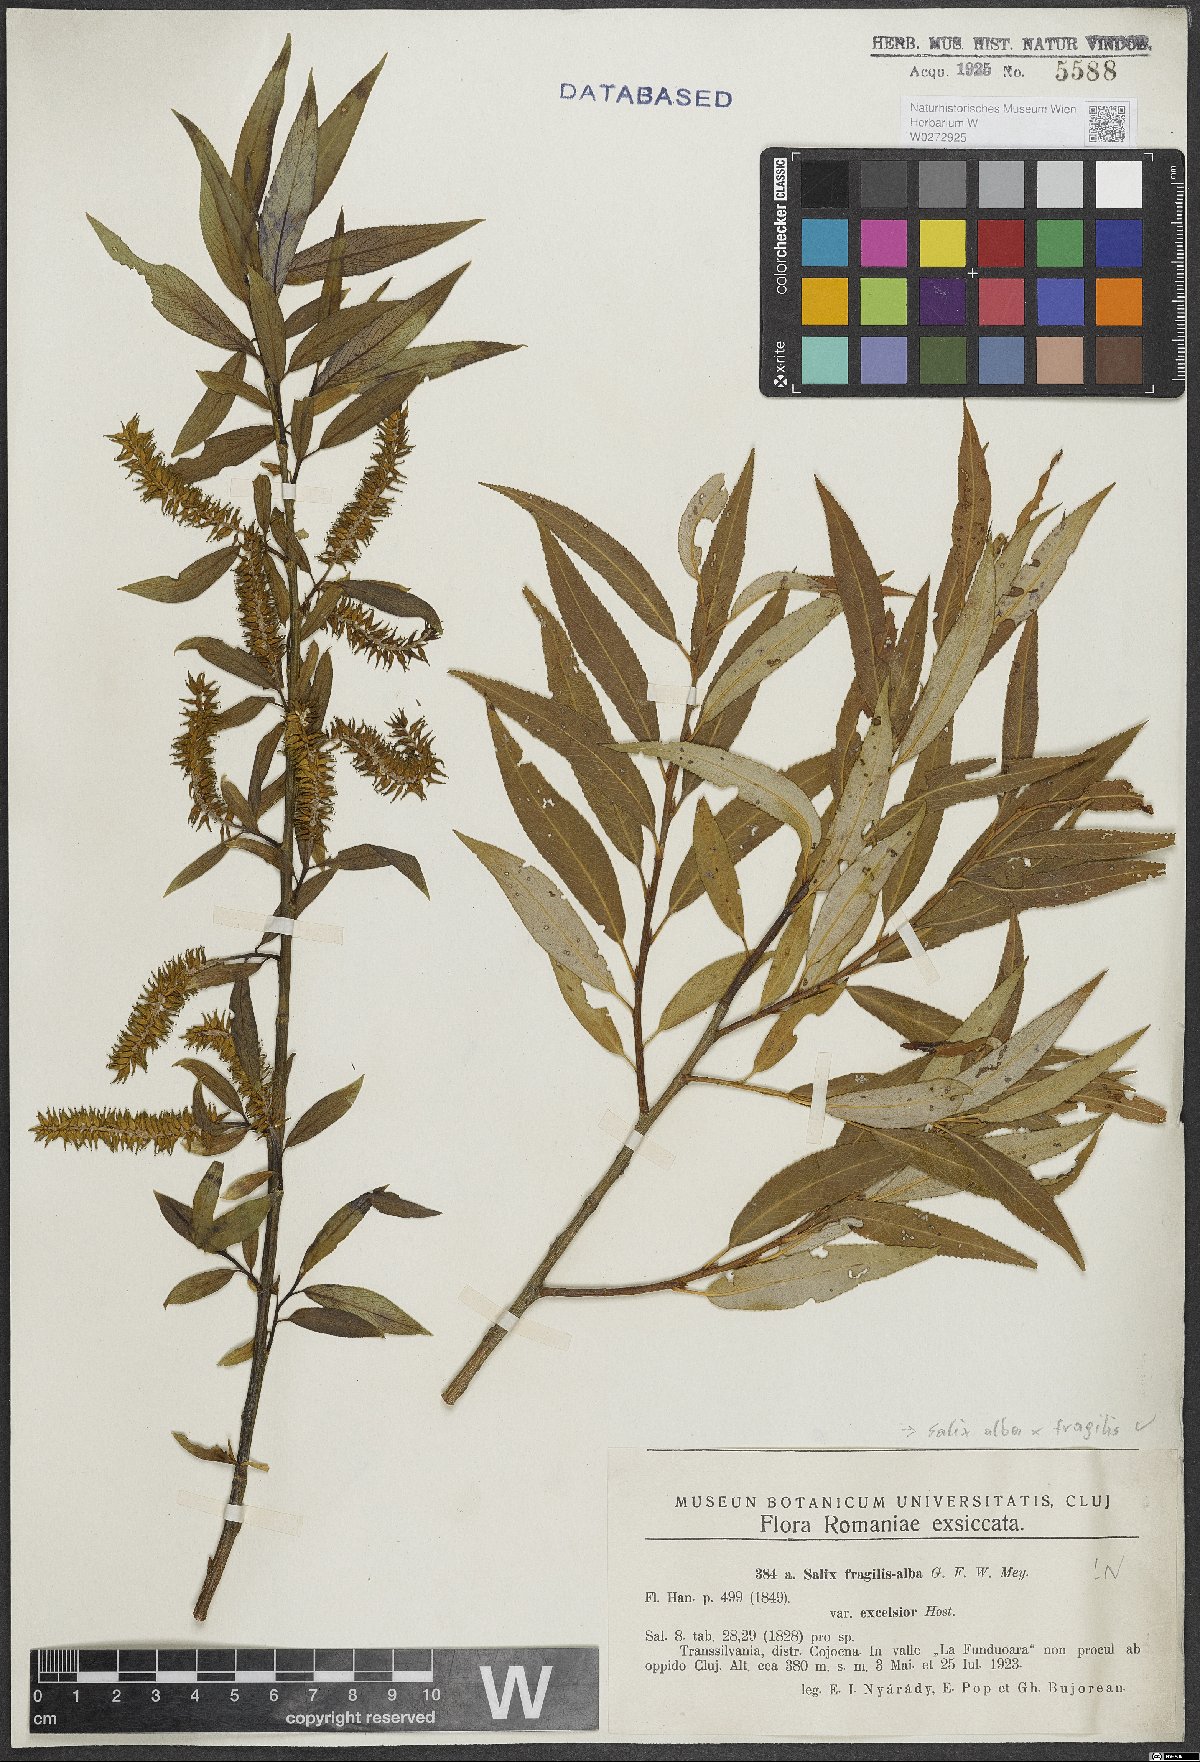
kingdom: Plantae
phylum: Tracheophyta
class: Magnoliopsida
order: Malpighiales
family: Salicaceae
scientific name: Salicaceae
